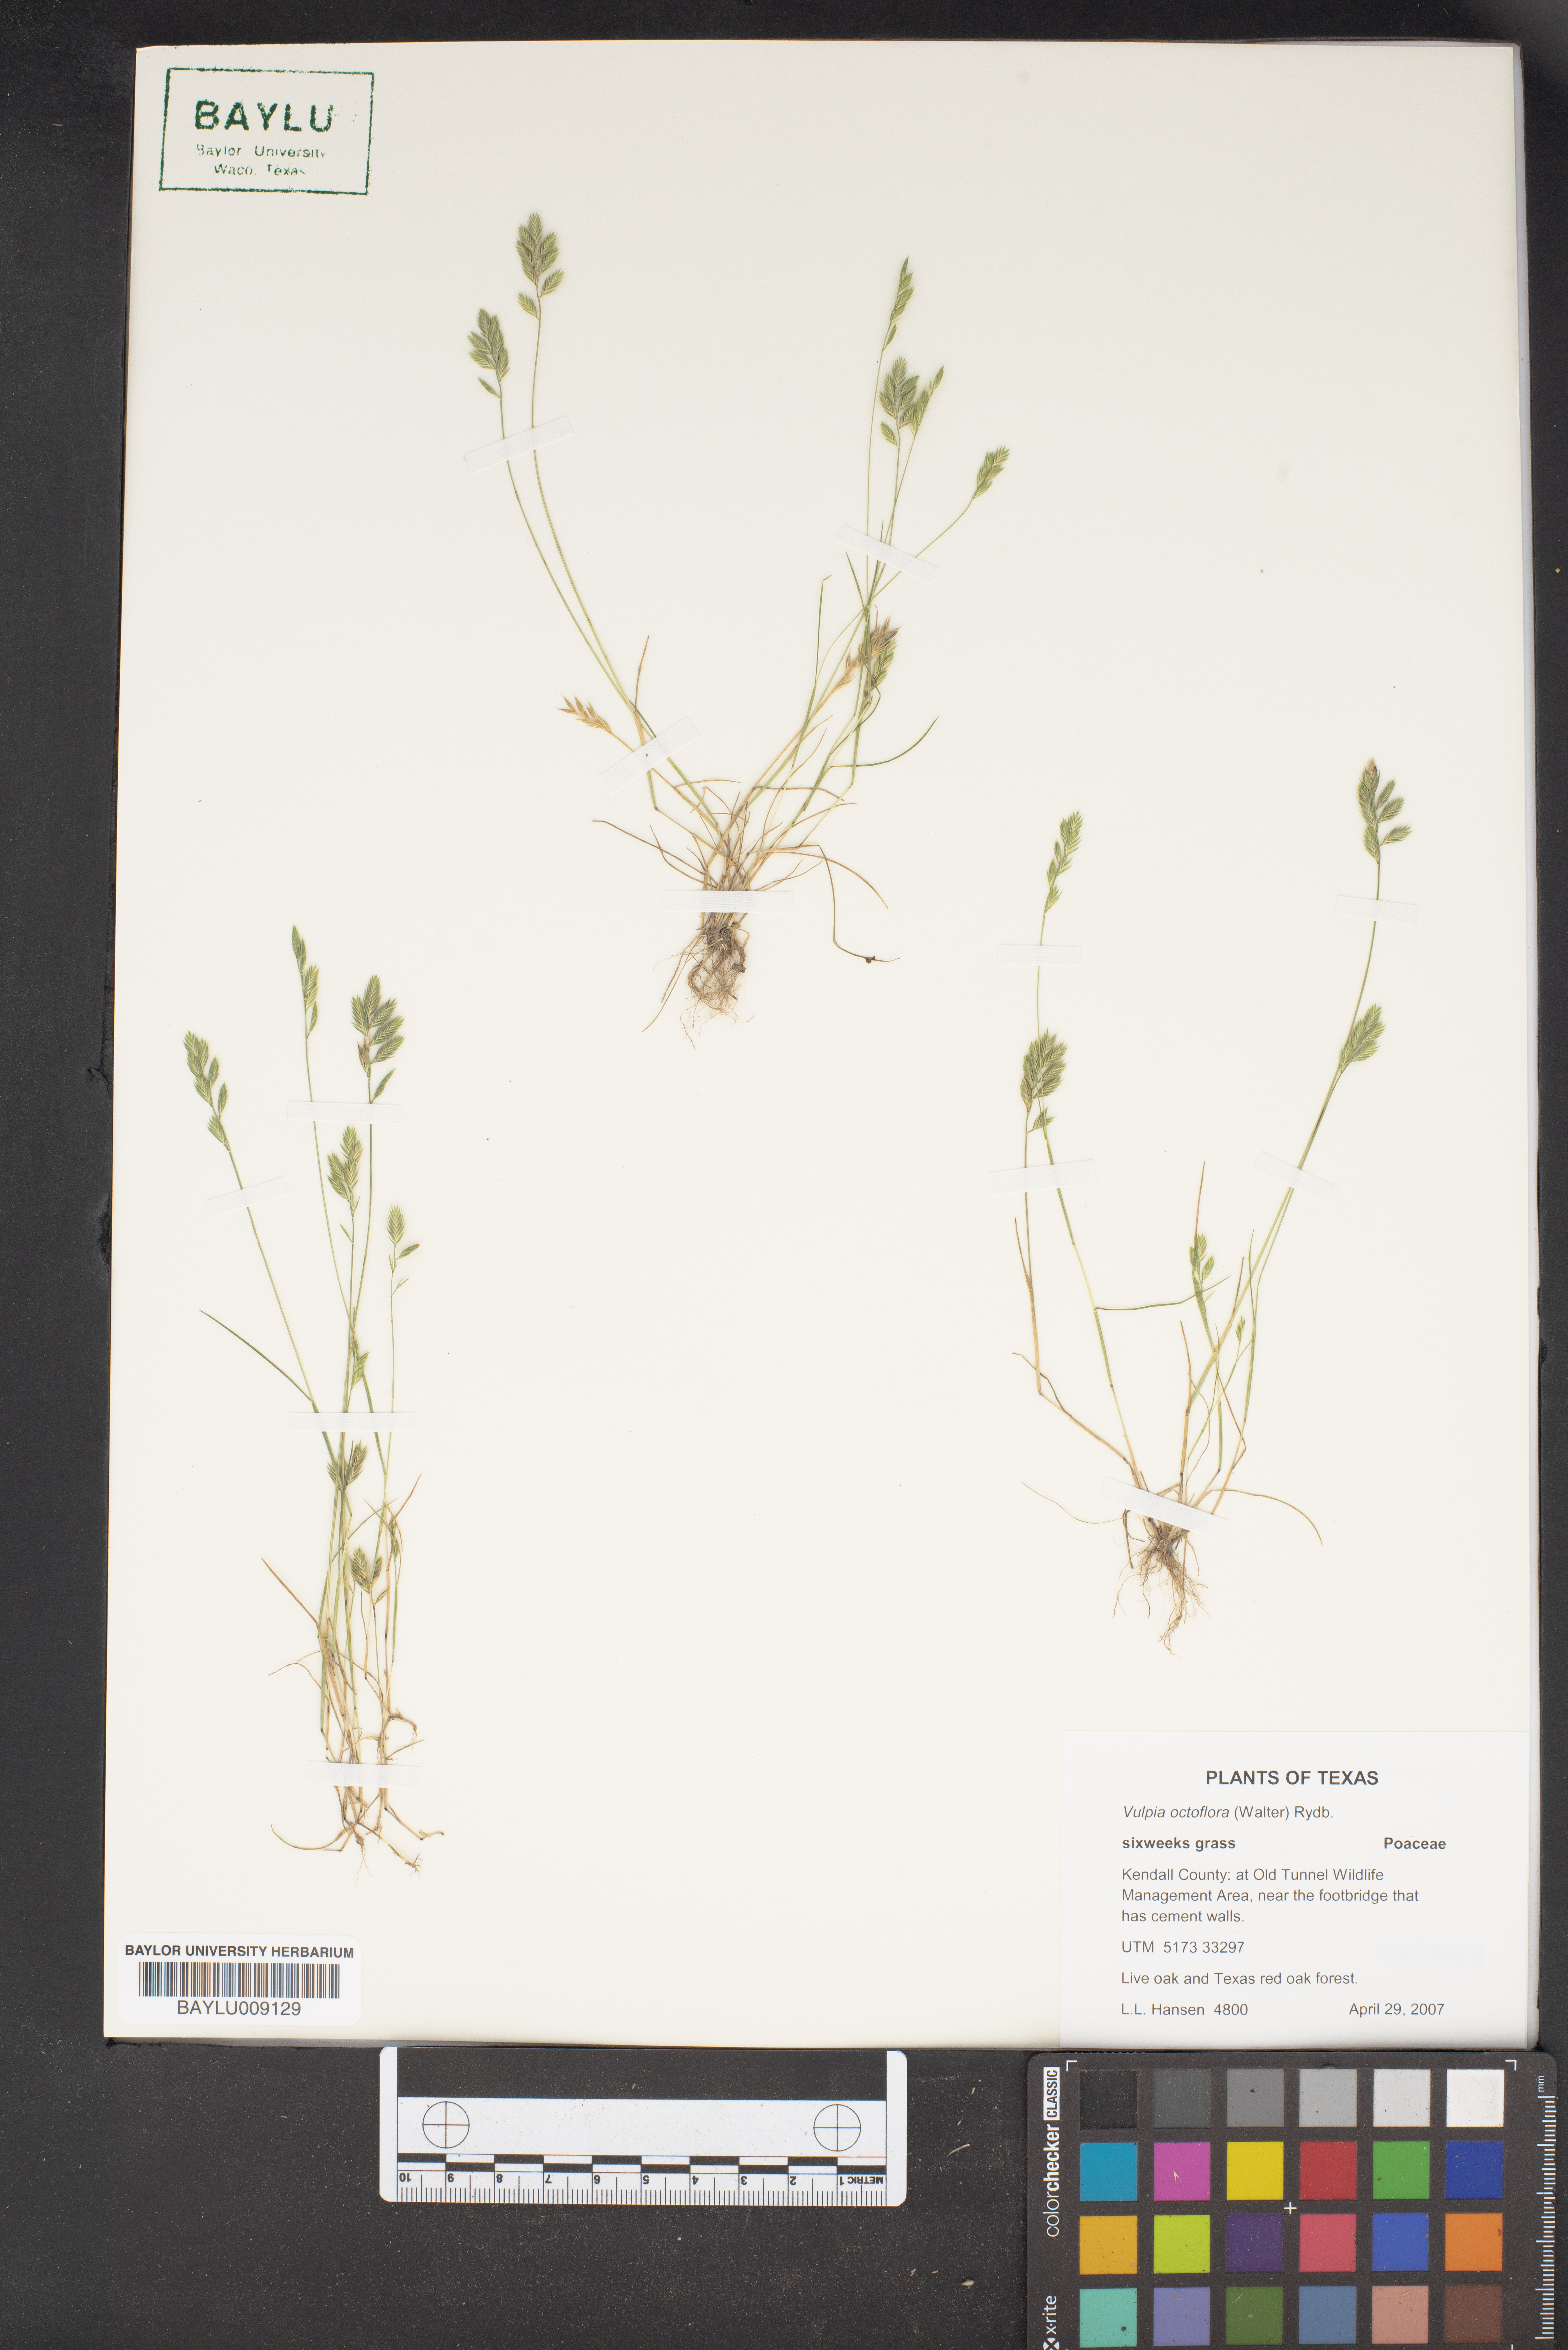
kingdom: Plantae
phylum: Tracheophyta
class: Liliopsida
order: Poales
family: Poaceae
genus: Festuca
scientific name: Festuca octoflora
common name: Sixweeks grass
